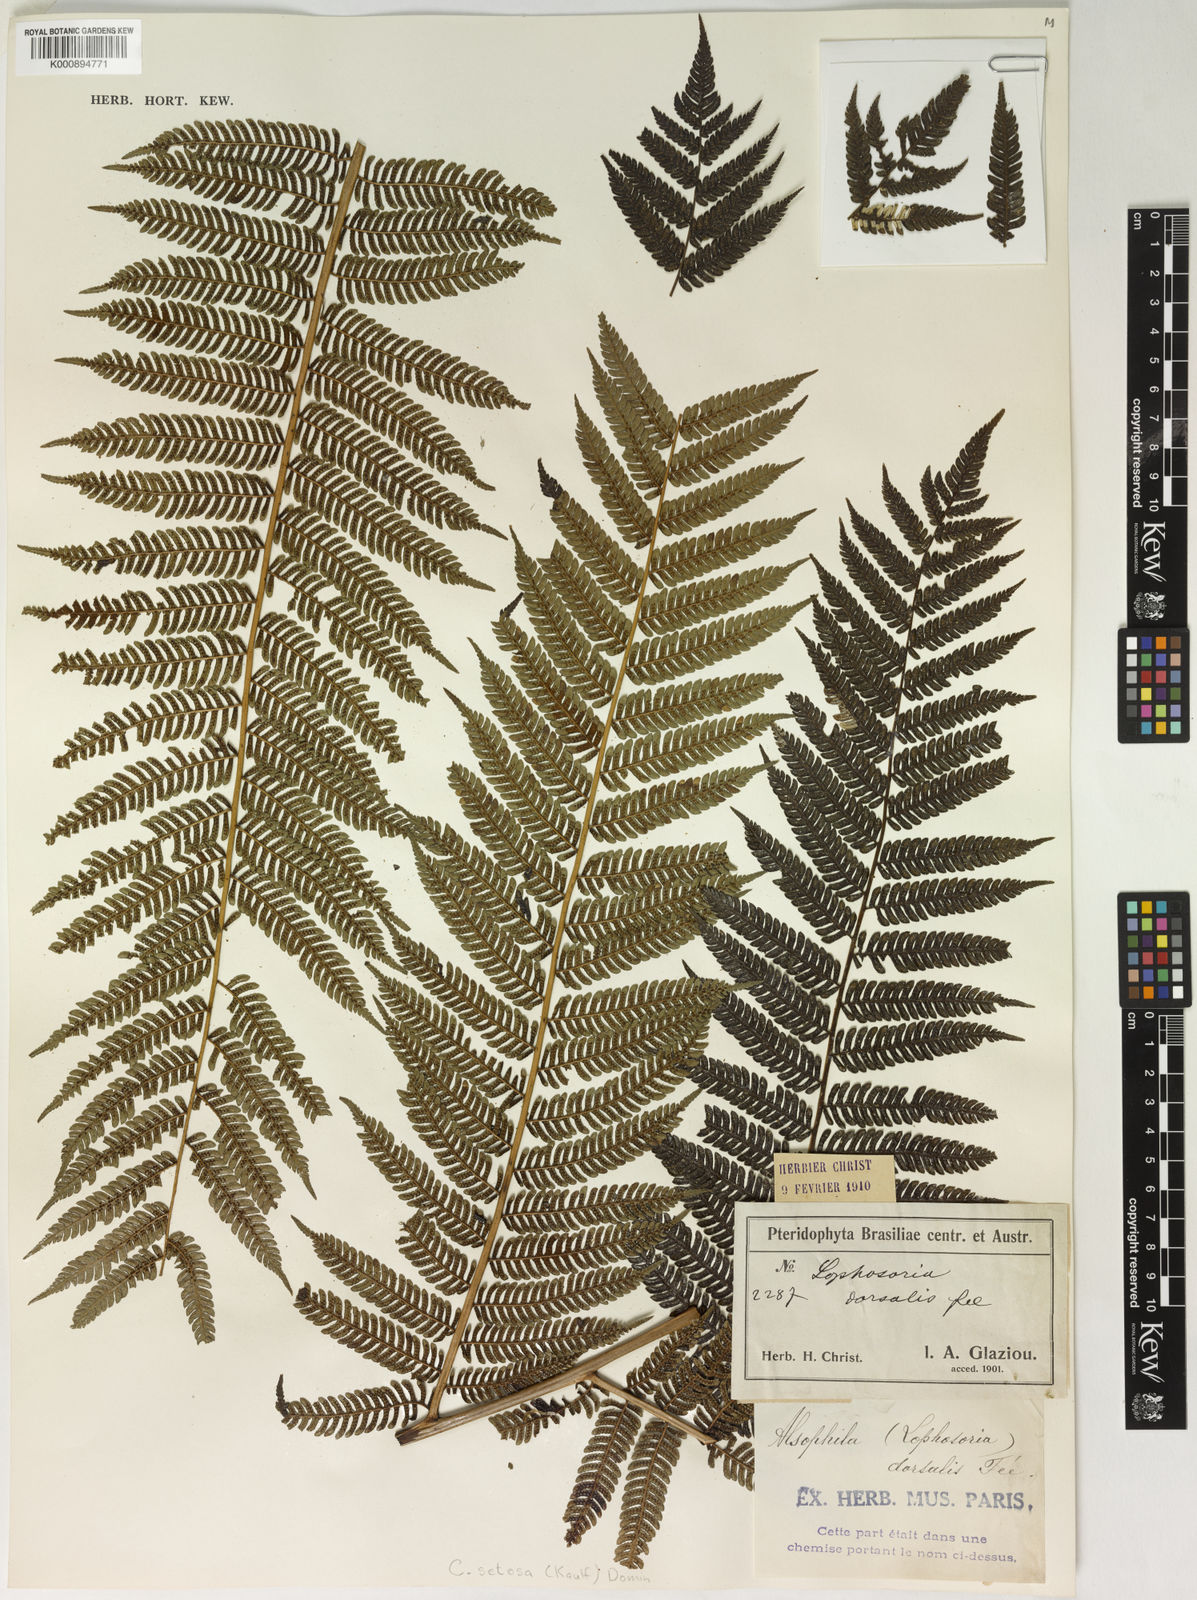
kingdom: Plantae
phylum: Tracheophyta
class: Polypodiopsida
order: Cyatheales
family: Cyatheaceae
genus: Alsophila
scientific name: Alsophila setosa
